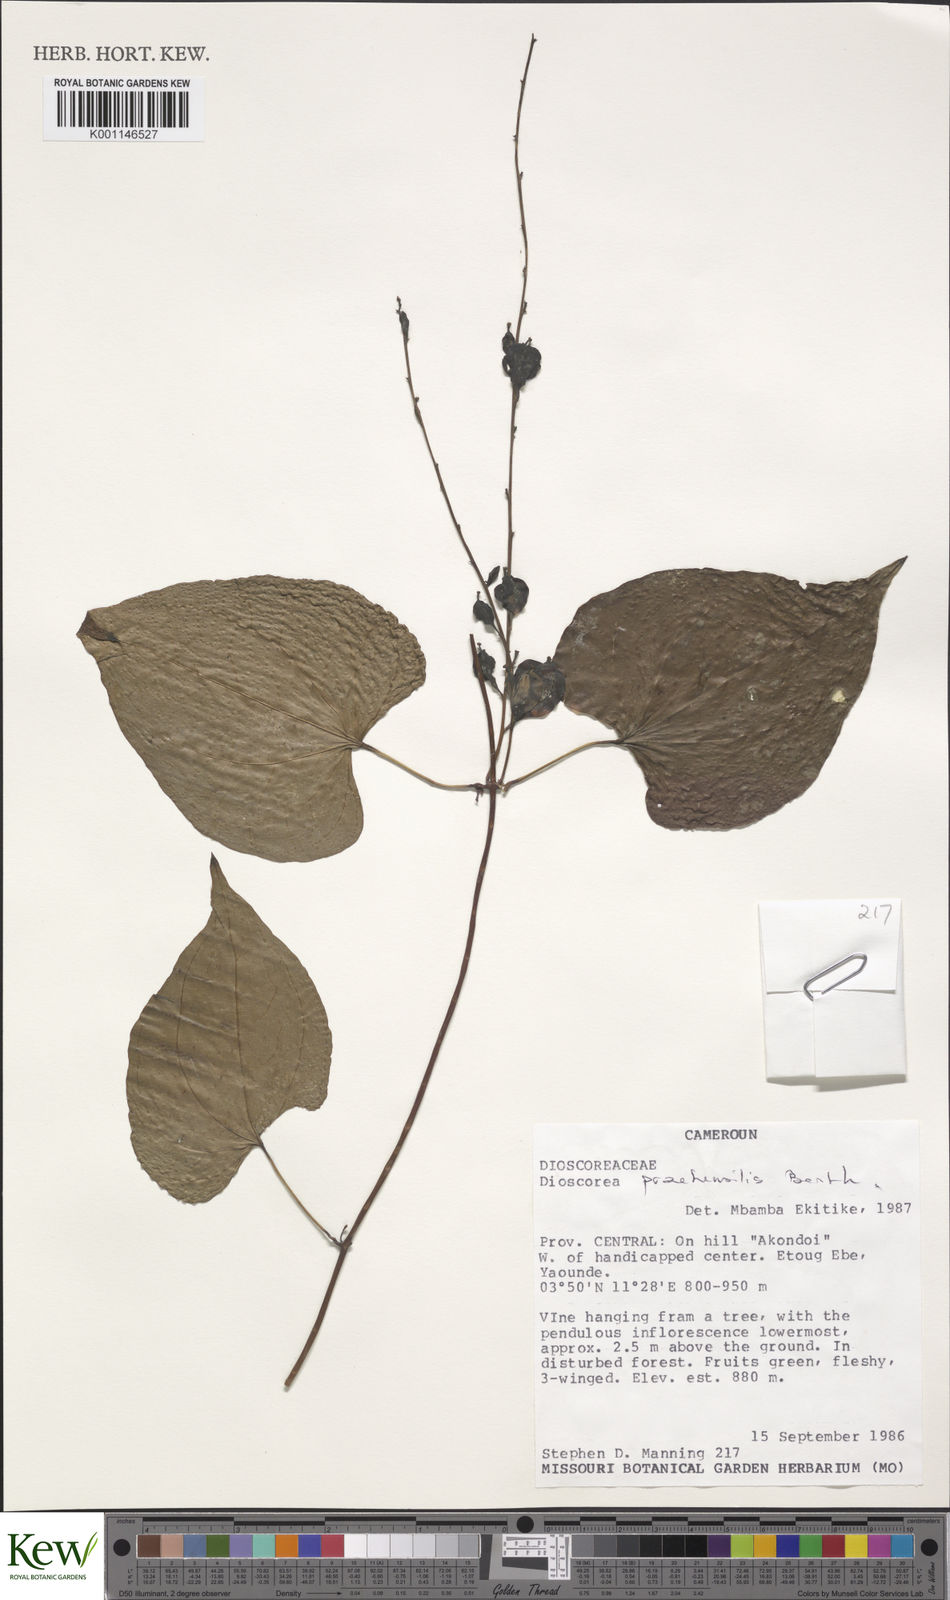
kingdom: Plantae
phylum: Tracheophyta
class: Liliopsida
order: Dioscoreales
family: Dioscoreaceae
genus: Dioscorea
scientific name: Dioscorea
